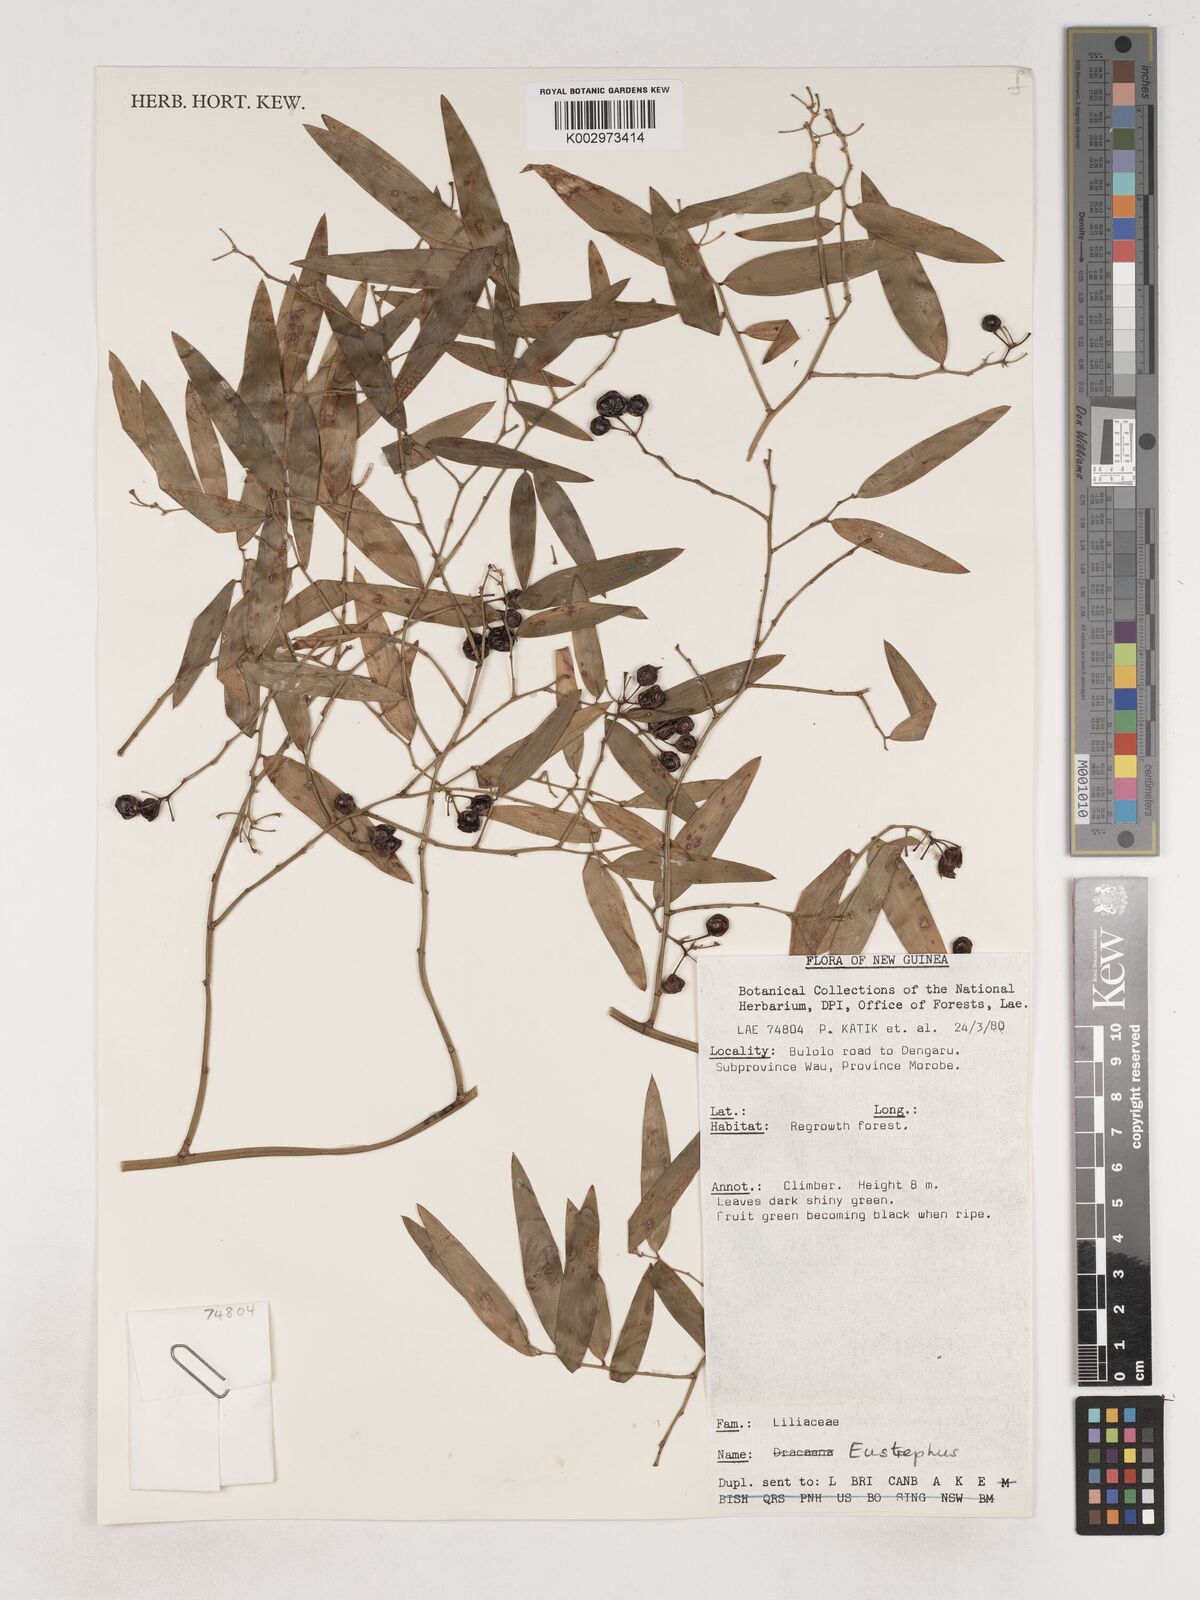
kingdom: Plantae
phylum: Tracheophyta
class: Liliopsida
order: Asparagales
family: Asparagaceae
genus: Eustrephus
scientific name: Eustrephus latifolius
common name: Orangevine
